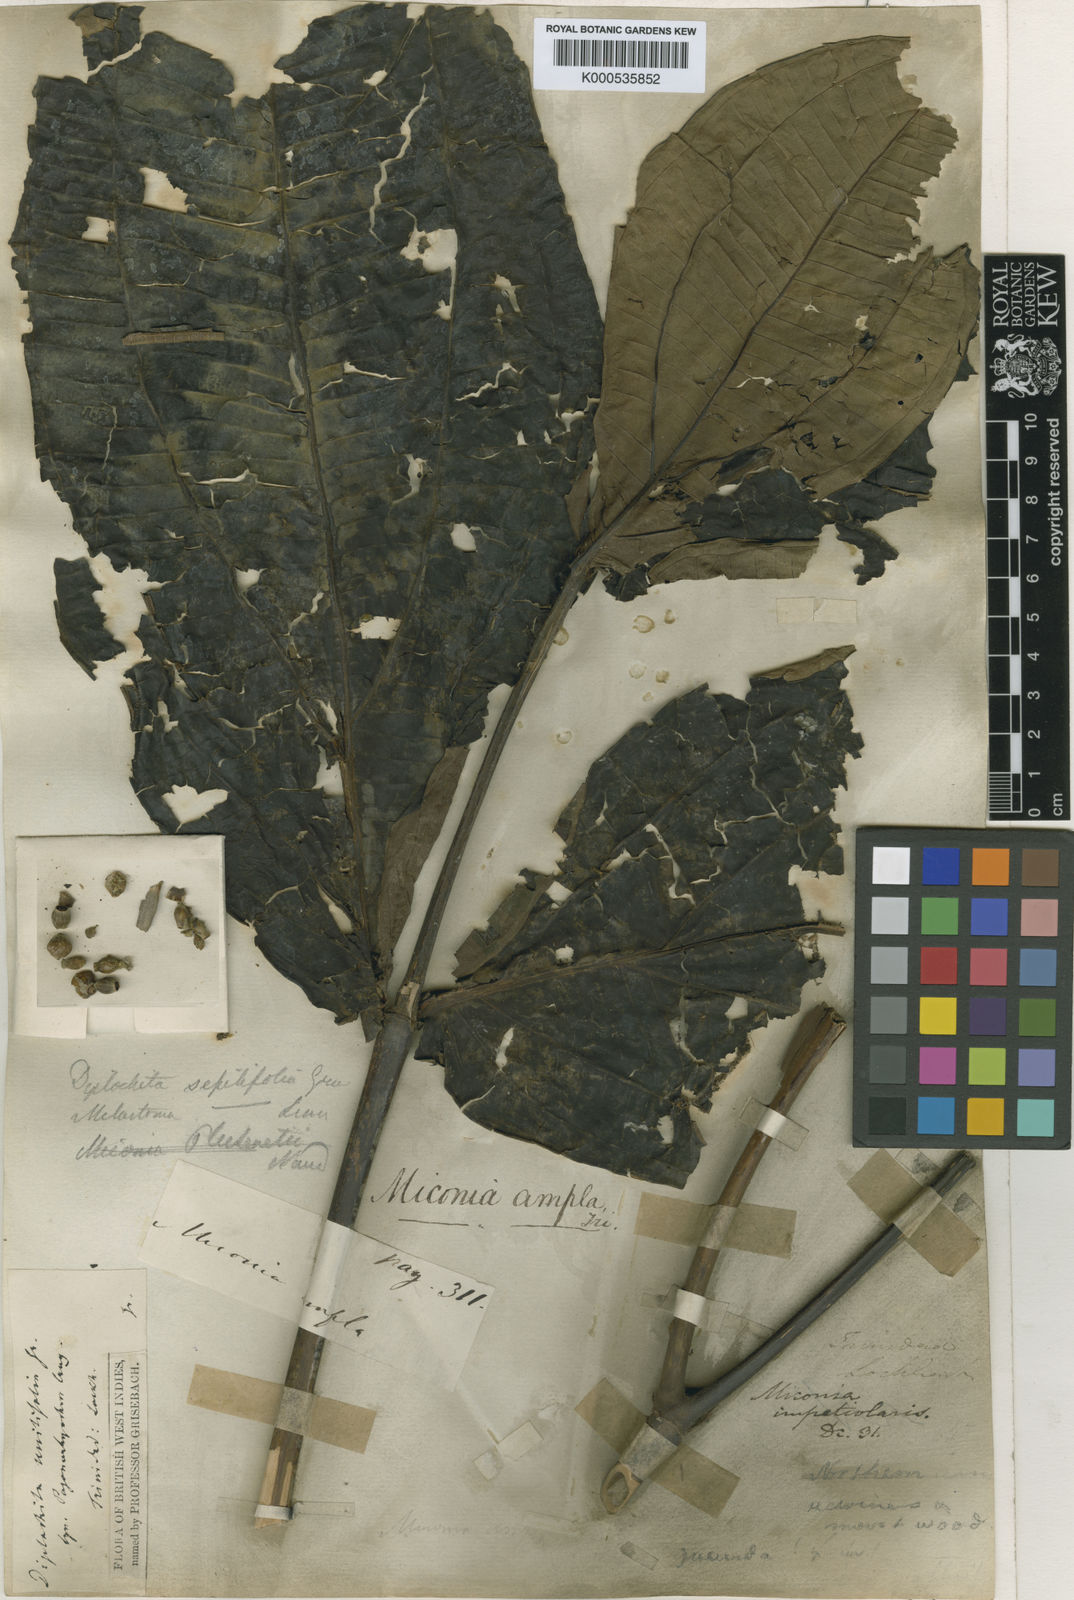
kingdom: Plantae
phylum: Tracheophyta
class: Magnoliopsida
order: Myrtales
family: Melastomataceae
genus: Miconia
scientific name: Miconia ampla
